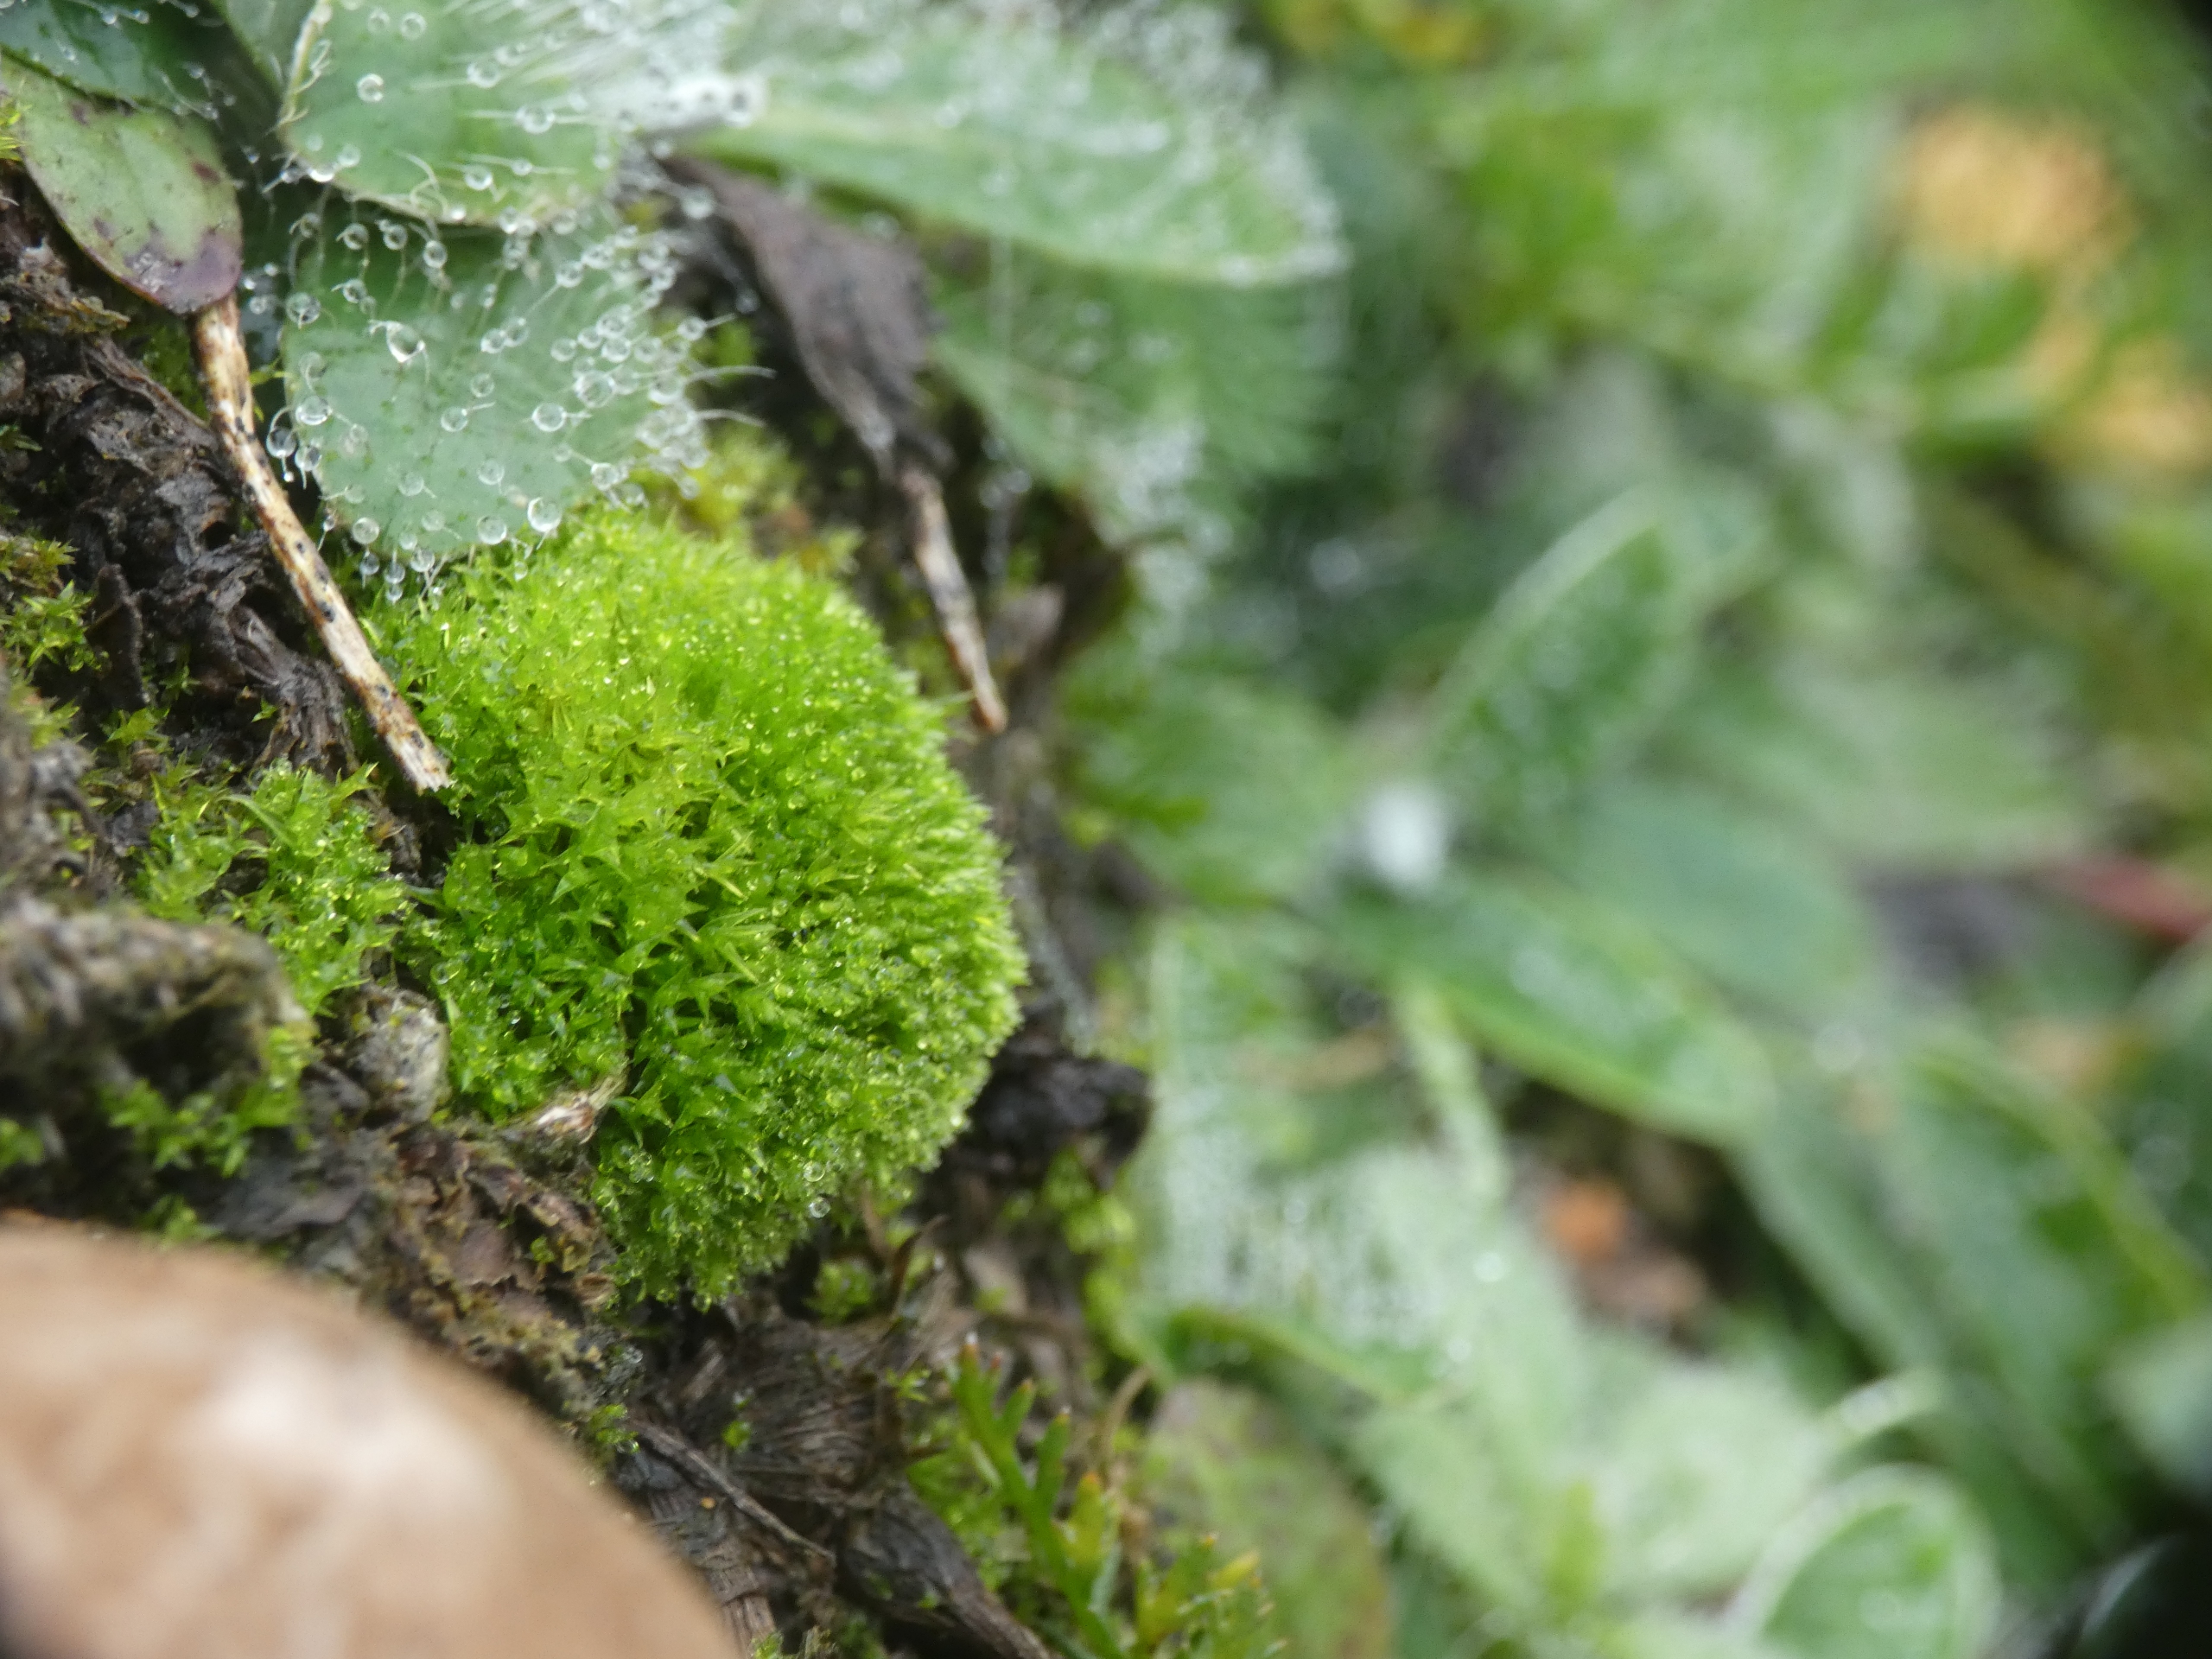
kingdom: Plantae
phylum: Bryophyta
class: Bryopsida
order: Dicranales
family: Ditrichaceae
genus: Ceratodon
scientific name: Ceratodon purpureus
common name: Rød horntand
